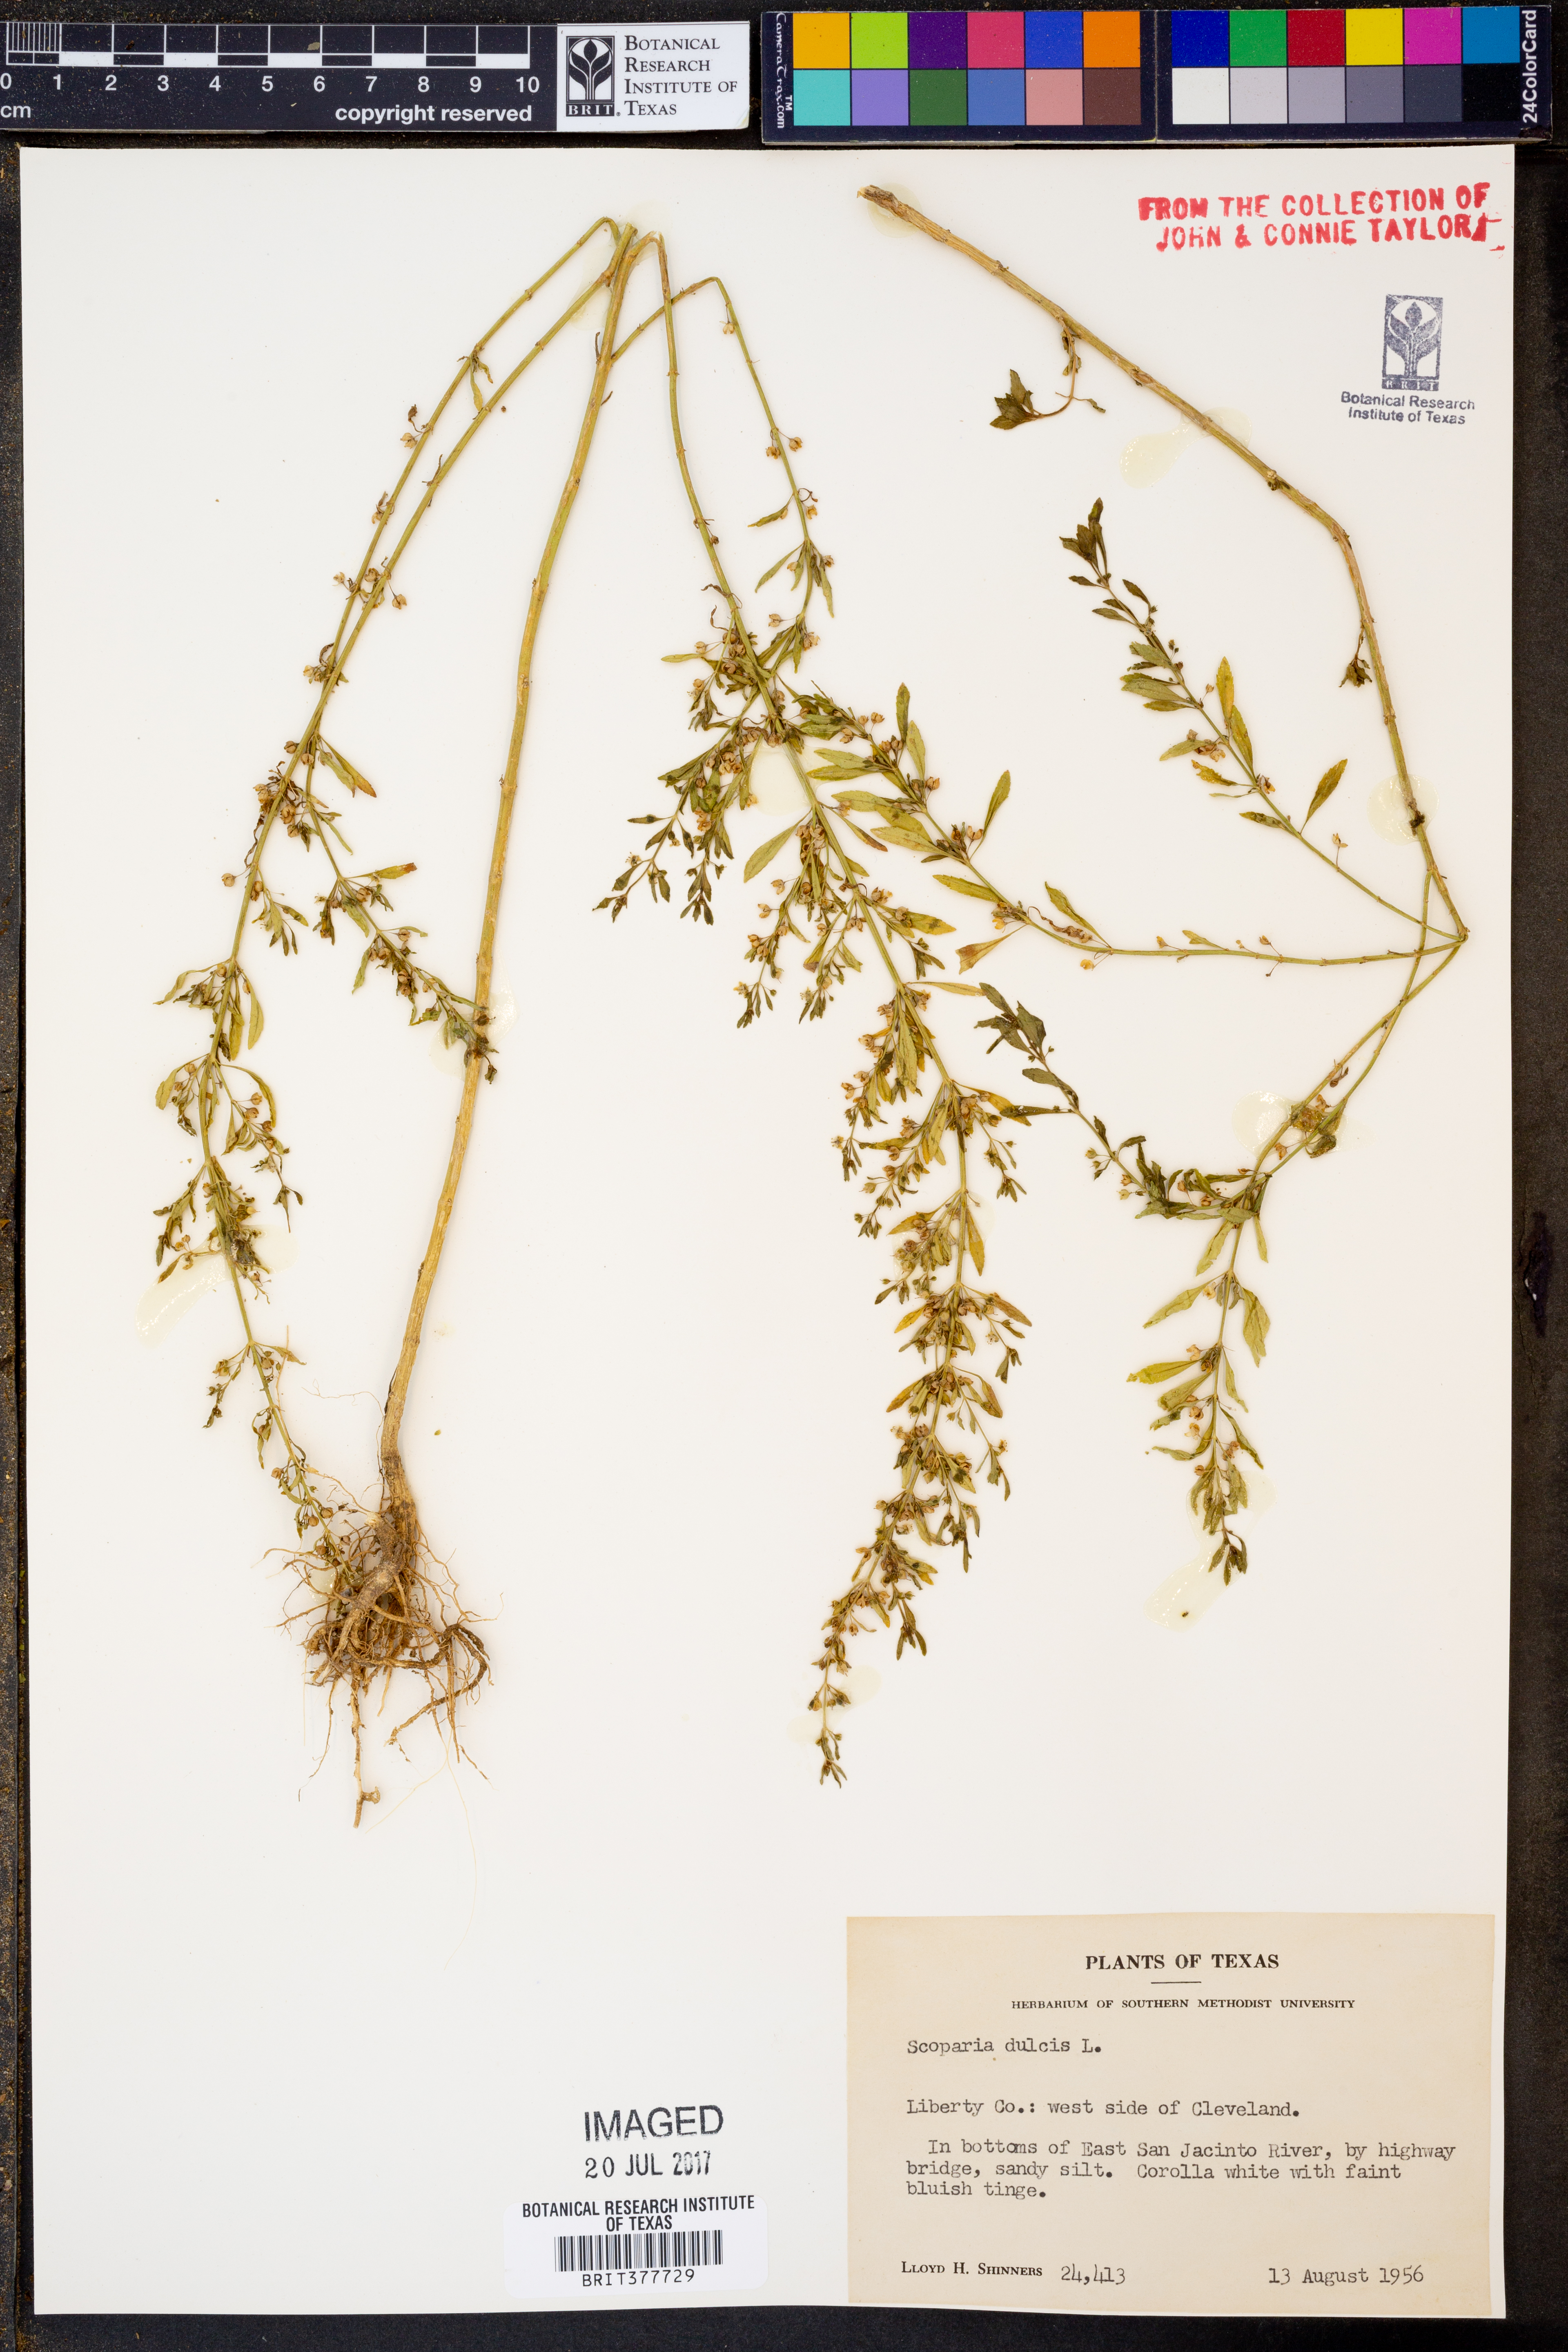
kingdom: Plantae
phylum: Tracheophyta
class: Magnoliopsida
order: Lamiales
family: Plantaginaceae
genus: Scoparia
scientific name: Scoparia dulcis
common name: Scoparia-weed
